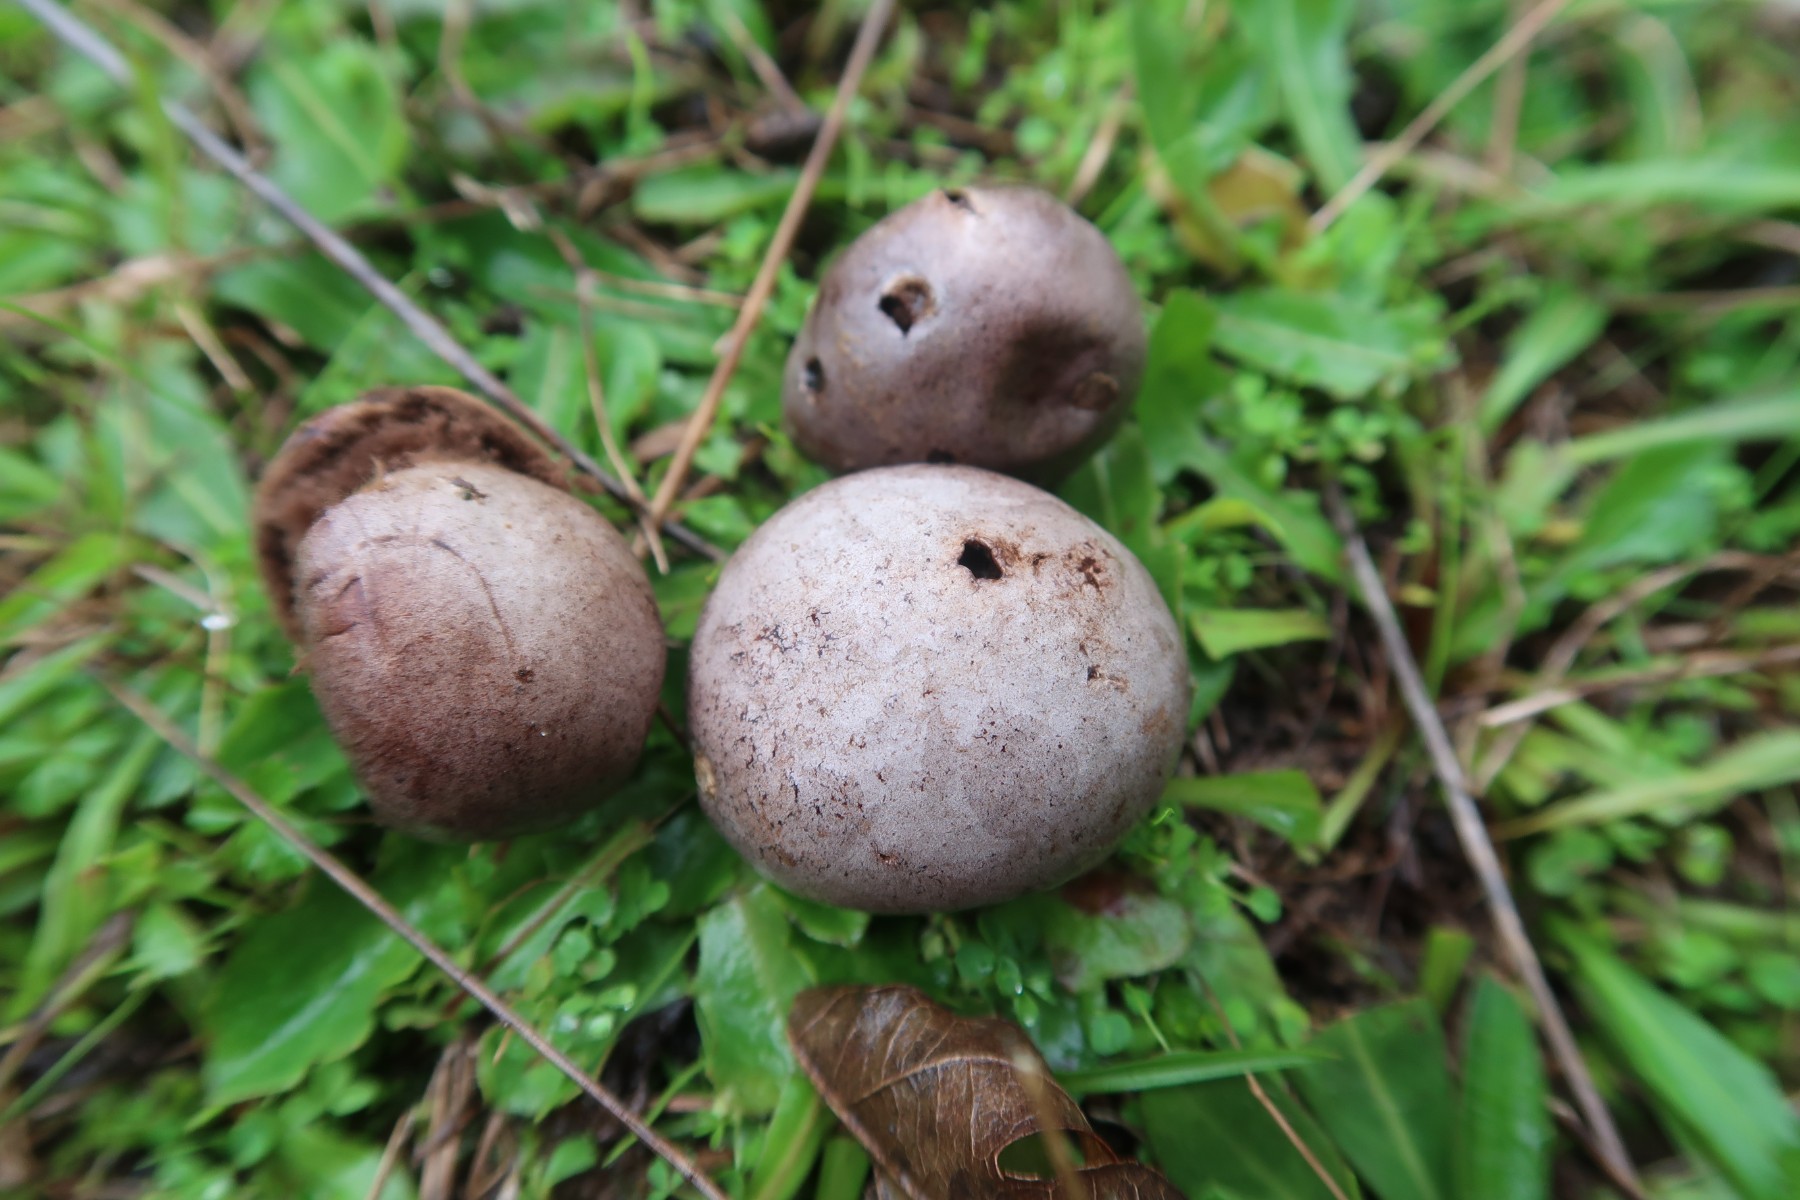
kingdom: Fungi
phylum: Basidiomycota
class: Agaricomycetes
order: Agaricales
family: Lycoperdaceae
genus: Bovista
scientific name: Bovista plumbea
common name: blygrå bovist
